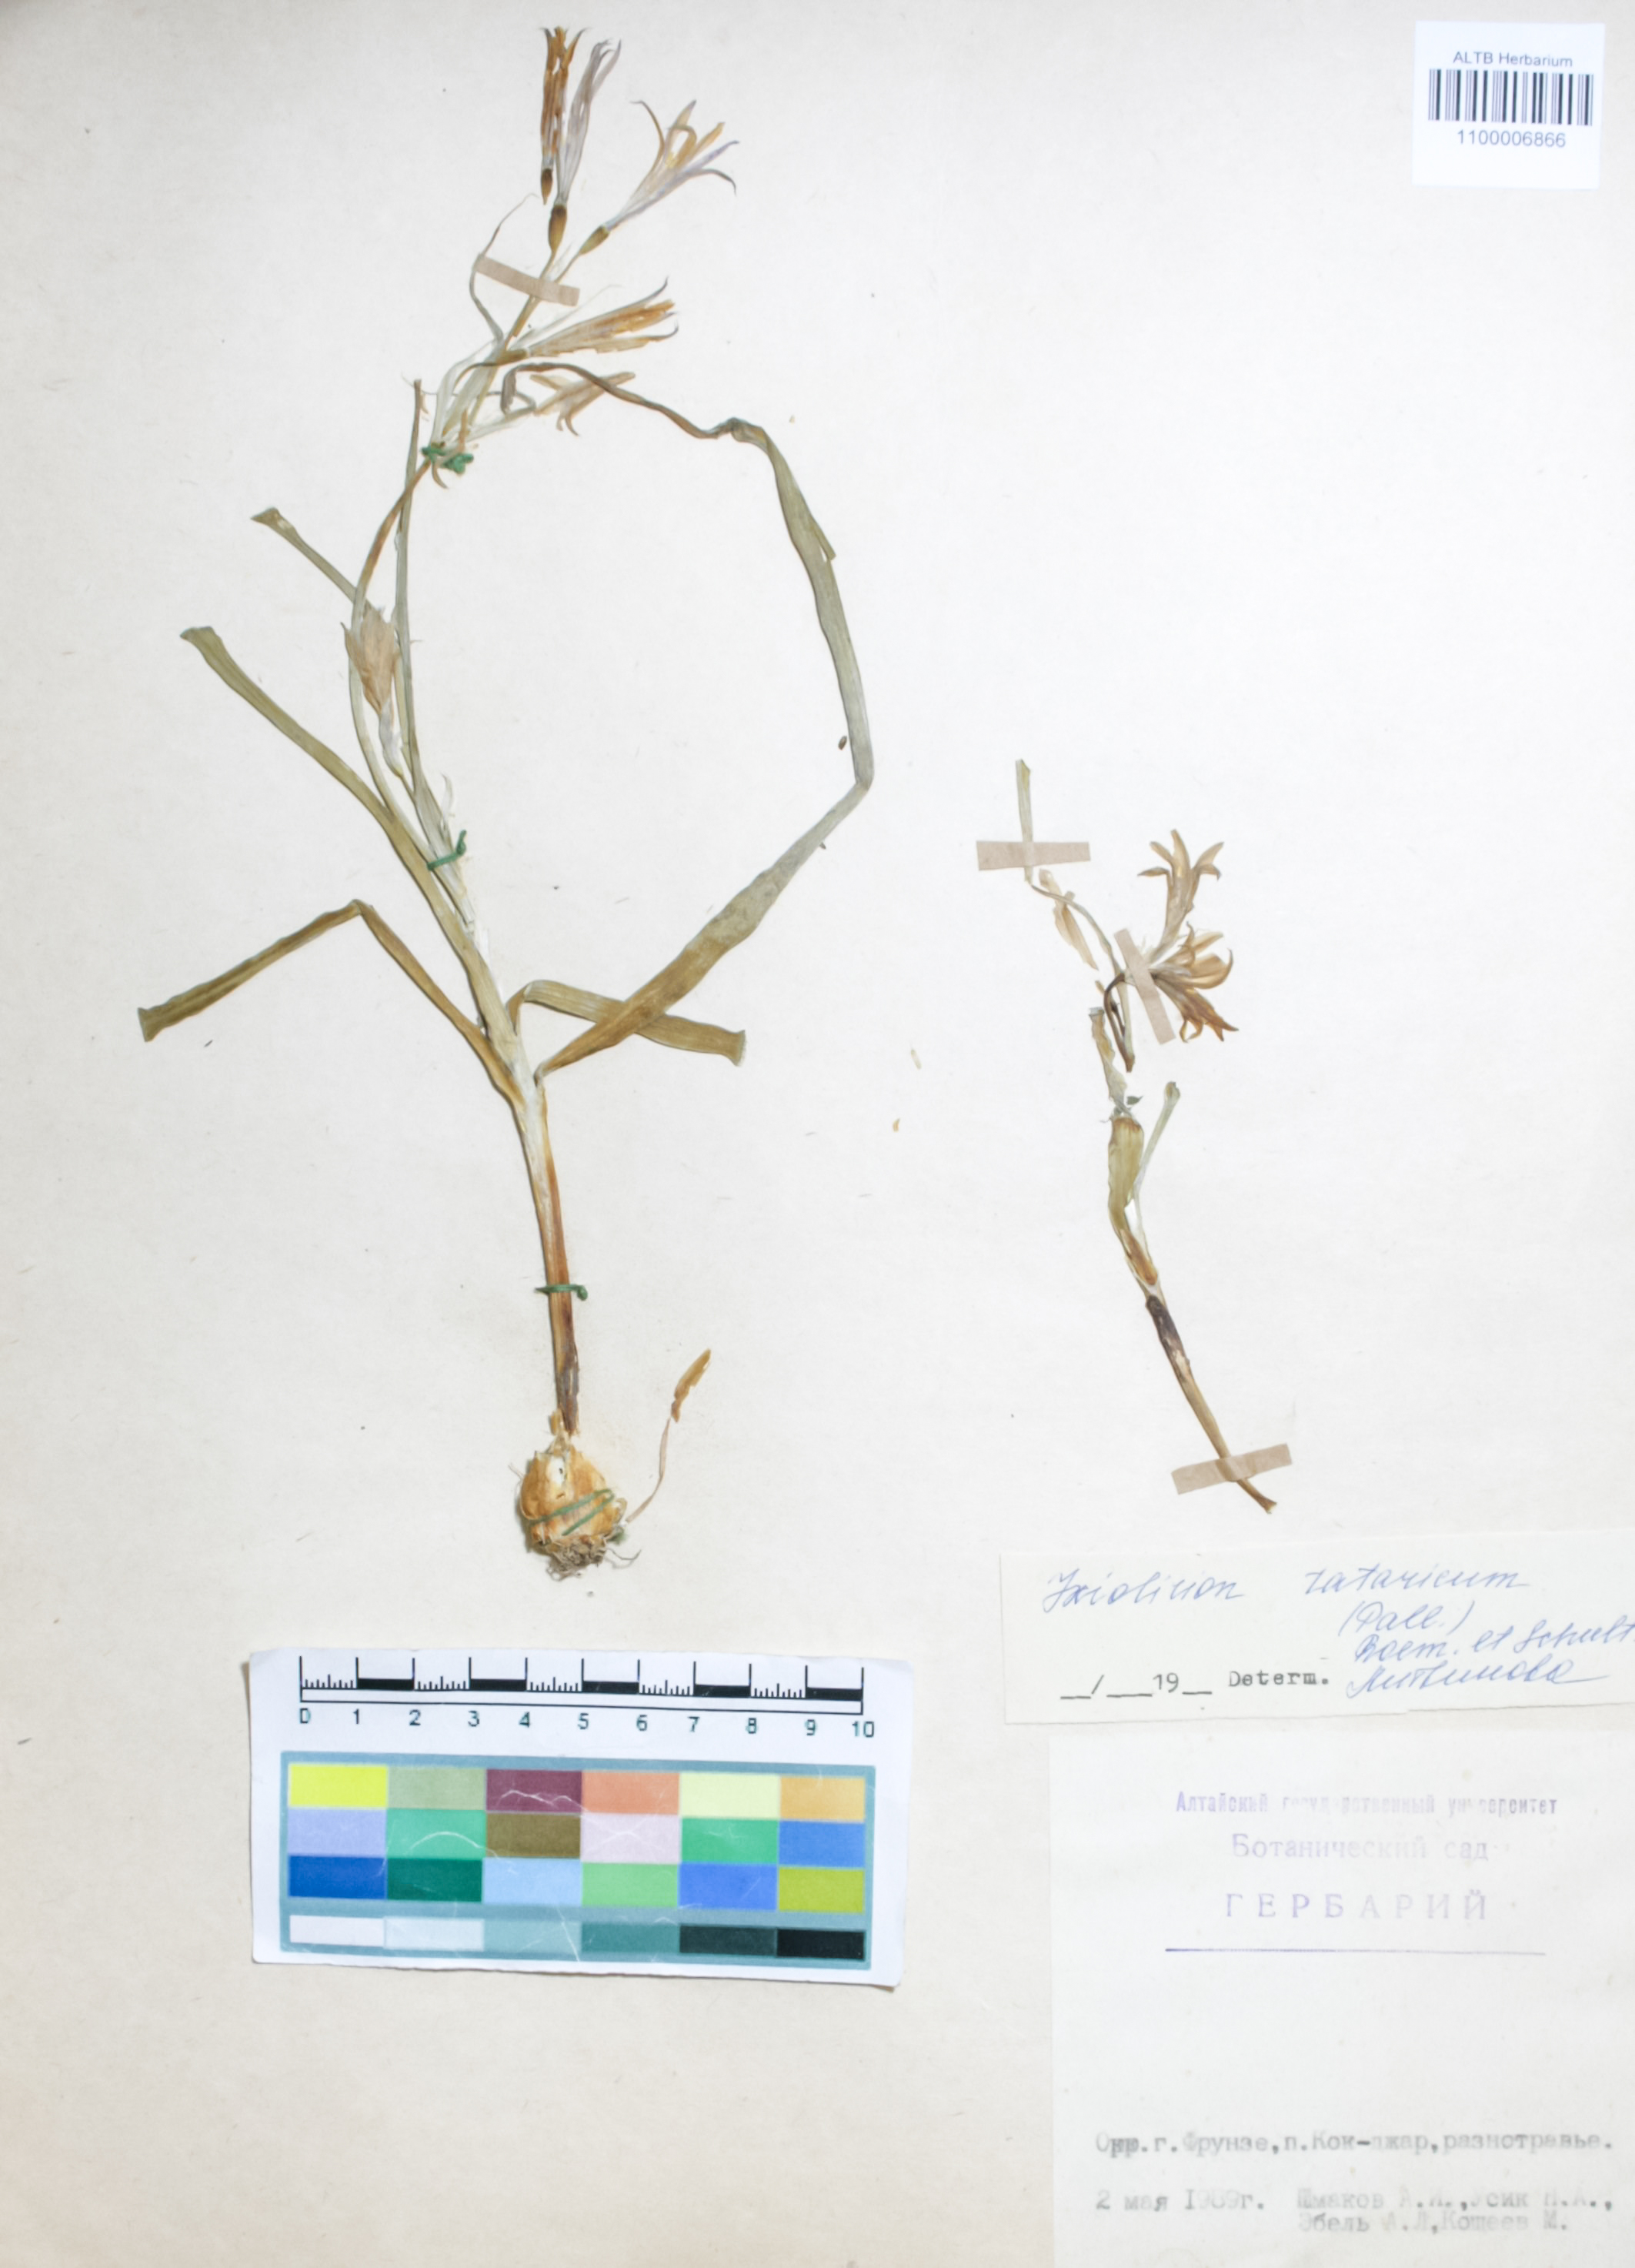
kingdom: Plantae
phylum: Tracheophyta
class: Liliopsida
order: Asparagales
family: Ixioliriaceae
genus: Ixiolirion
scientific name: Ixiolirion tataricum
